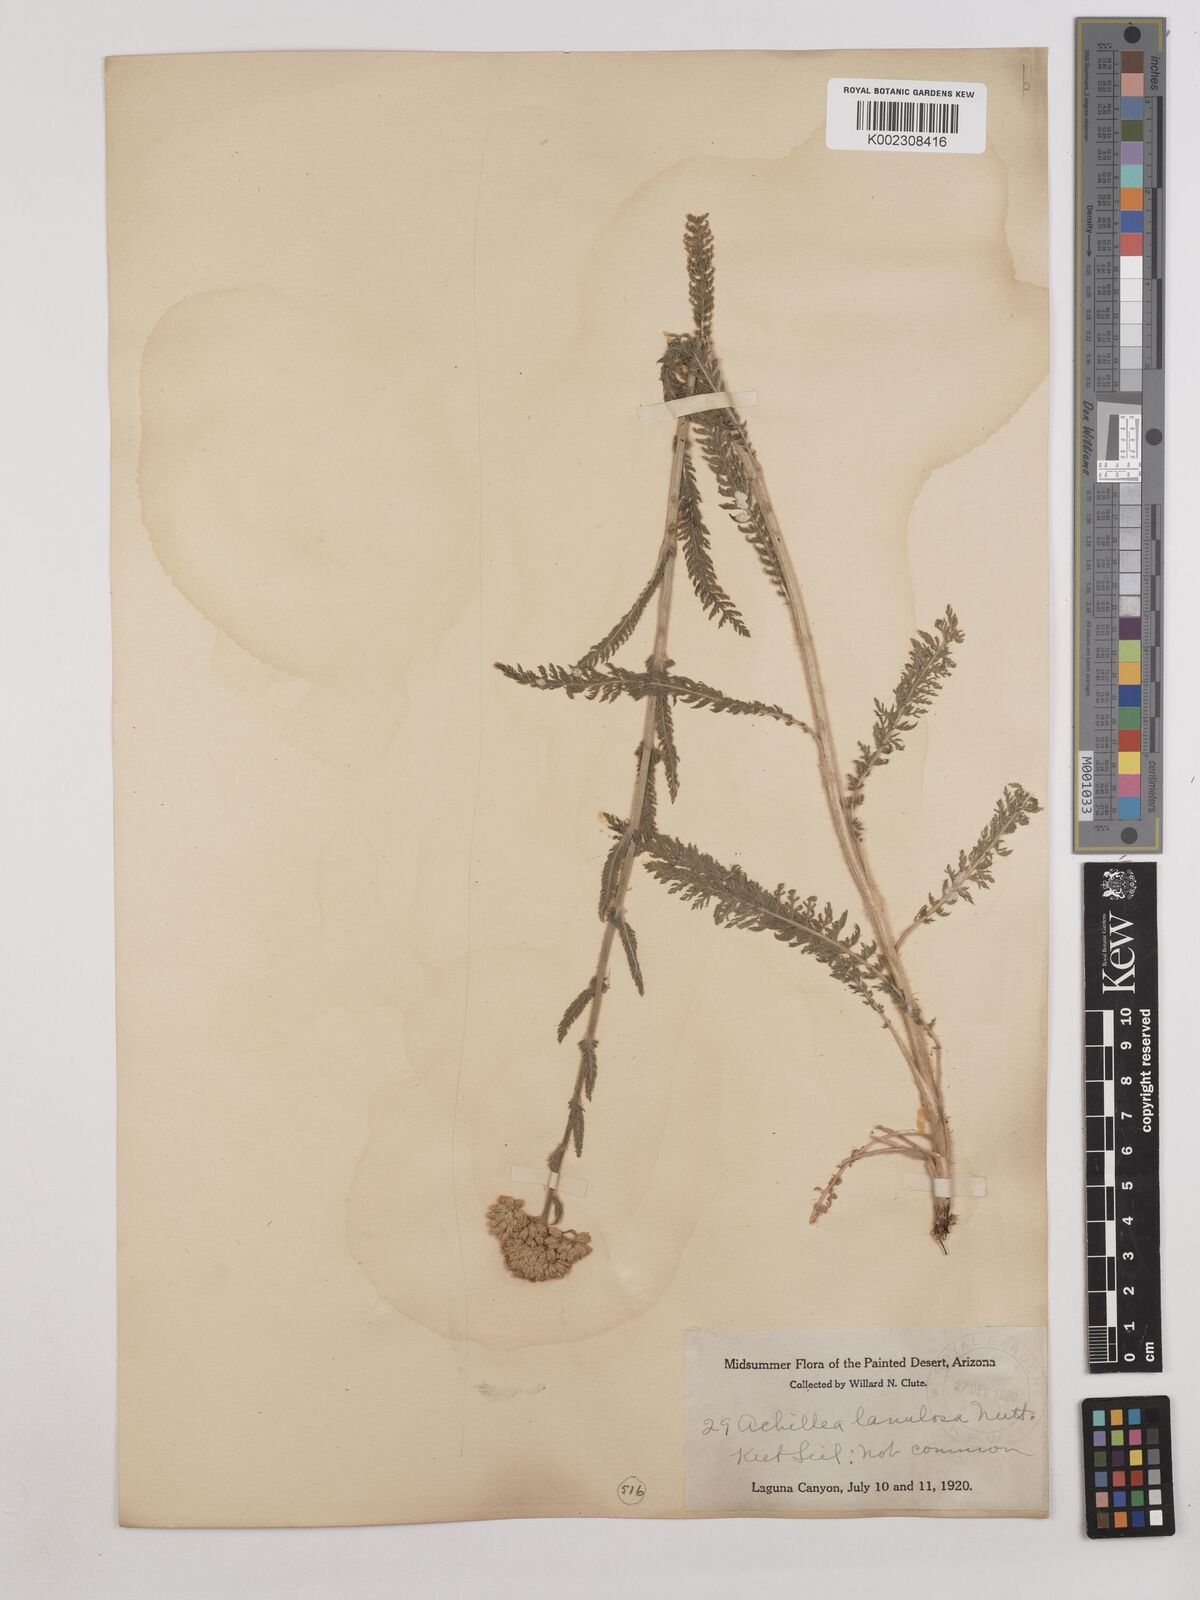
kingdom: Plantae
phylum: Tracheophyta
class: Magnoliopsida
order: Asterales
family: Asteraceae
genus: Achillea
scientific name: Achillea millefolium
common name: Yarrow
